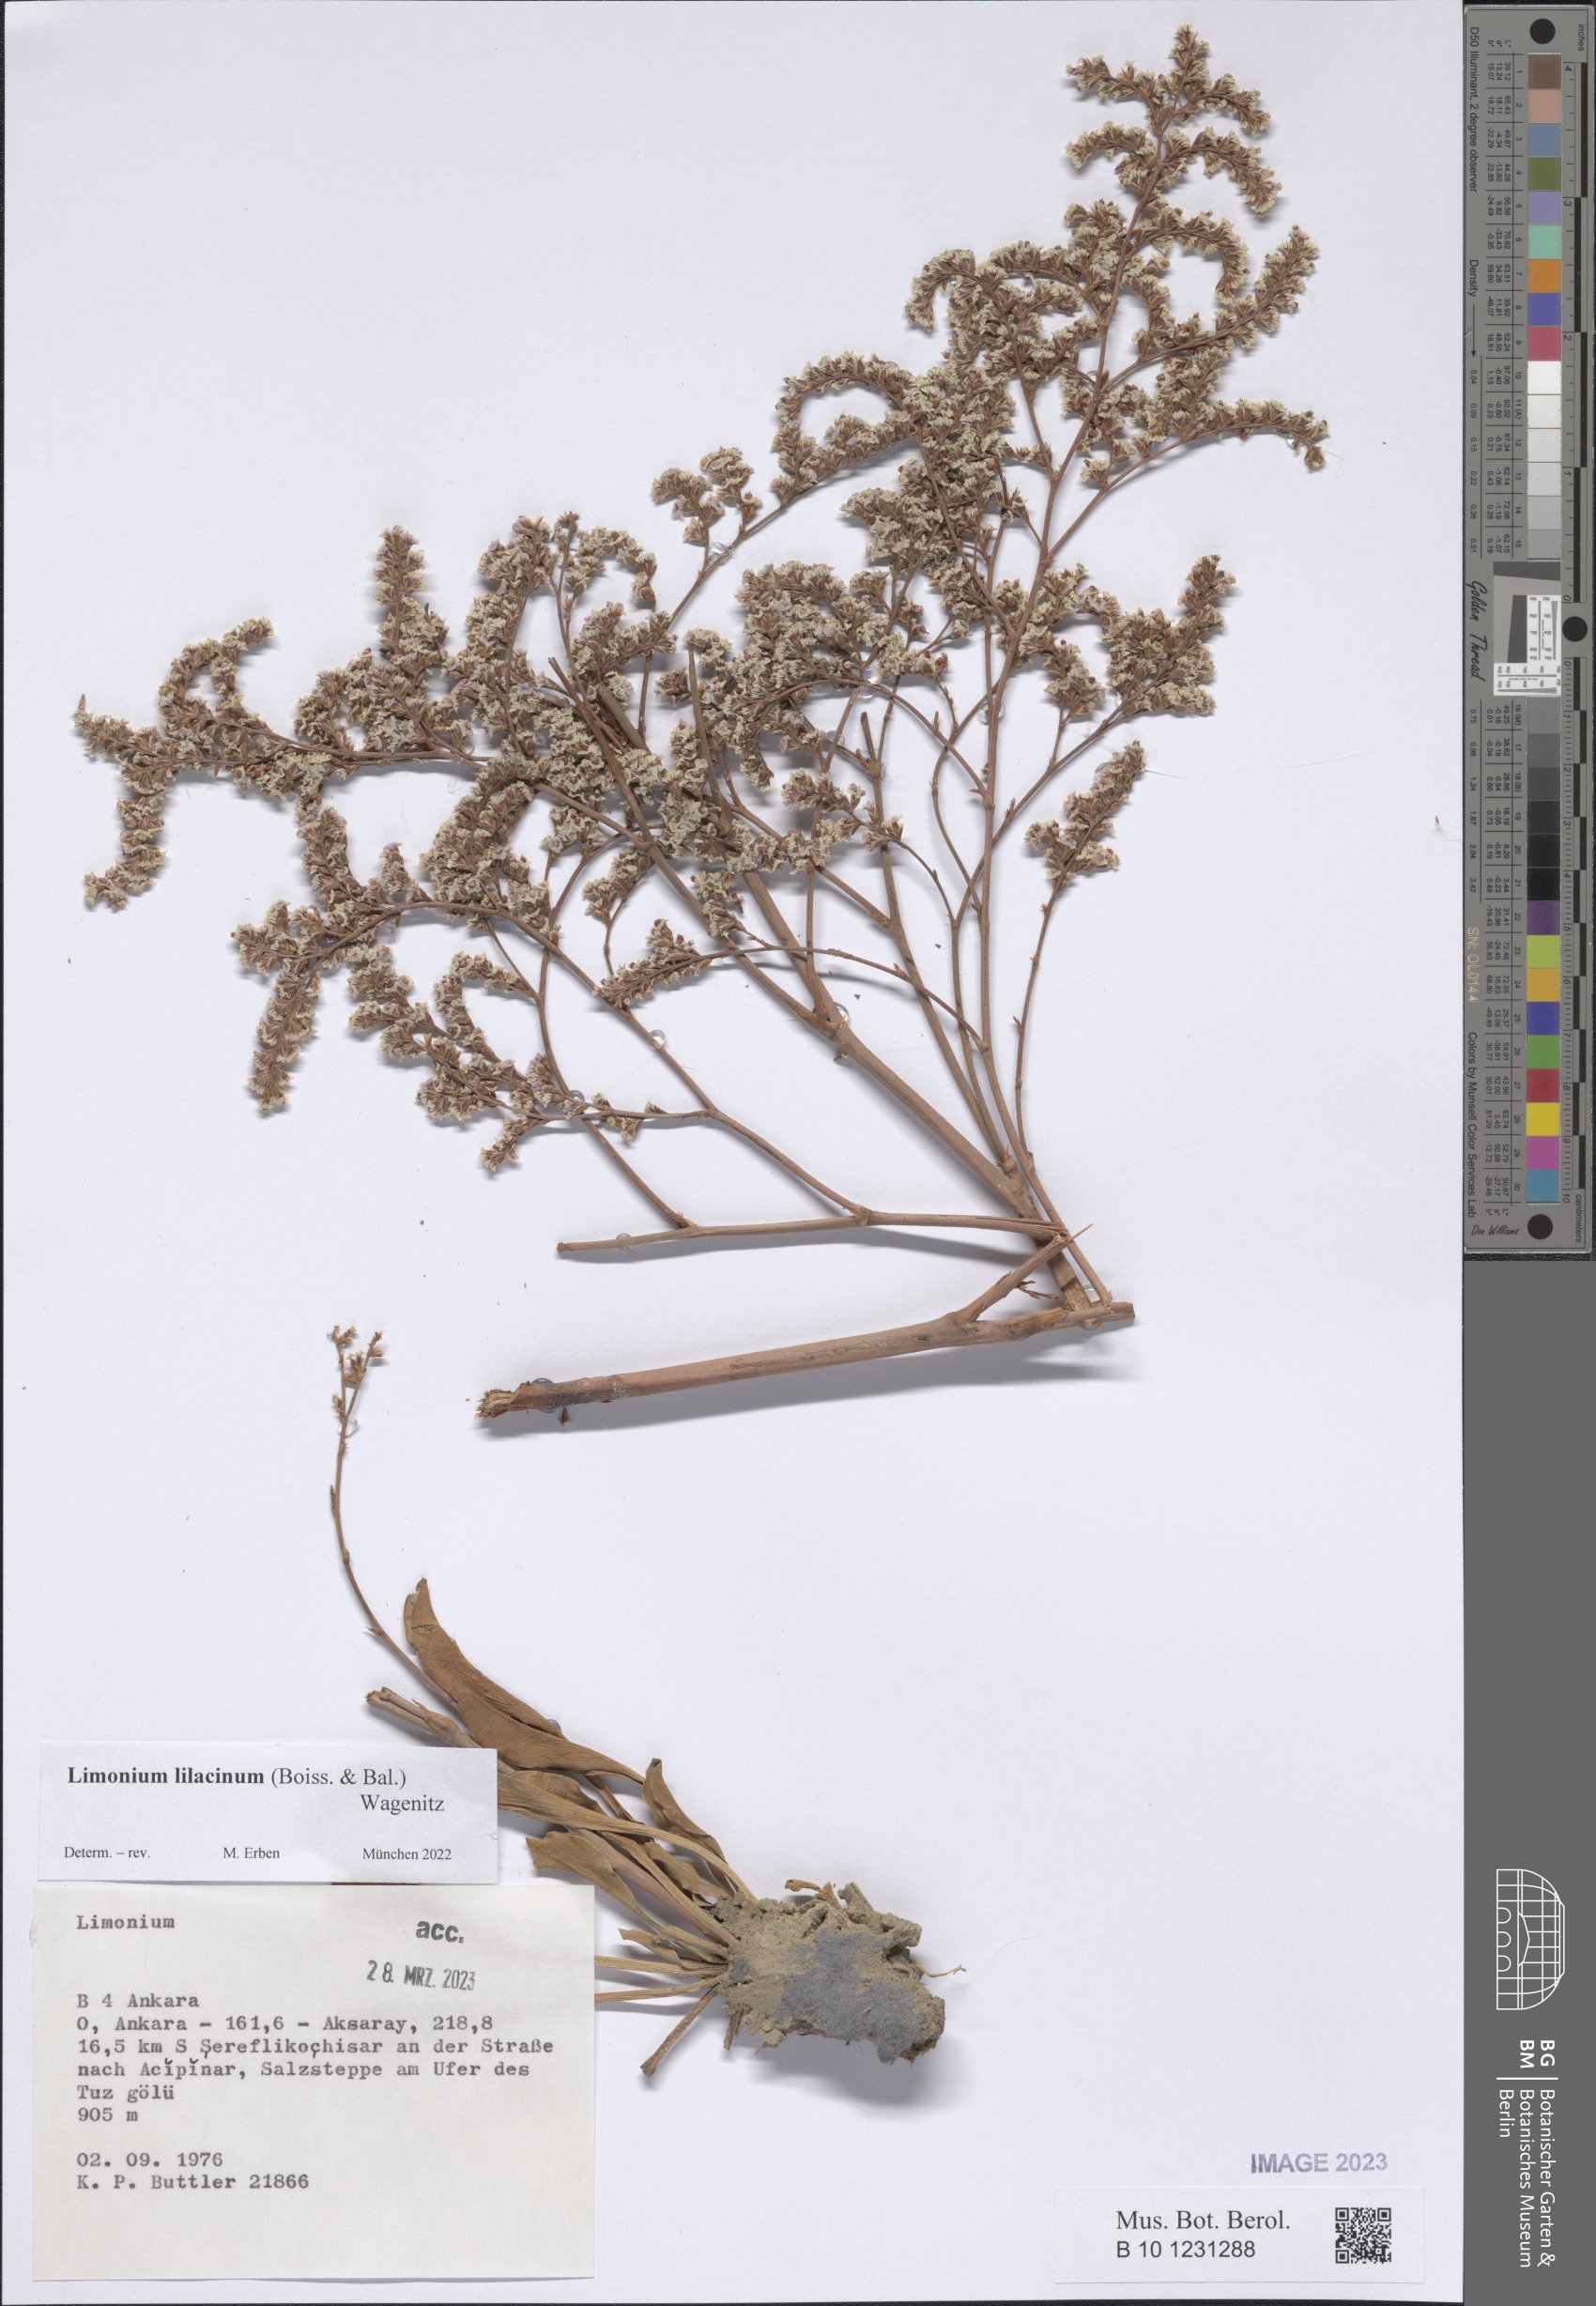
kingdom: Plantae
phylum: Tracheophyta
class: Magnoliopsida
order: Caryophyllales
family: Plumbaginaceae
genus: Limonium
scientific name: Limonium lilacinum
